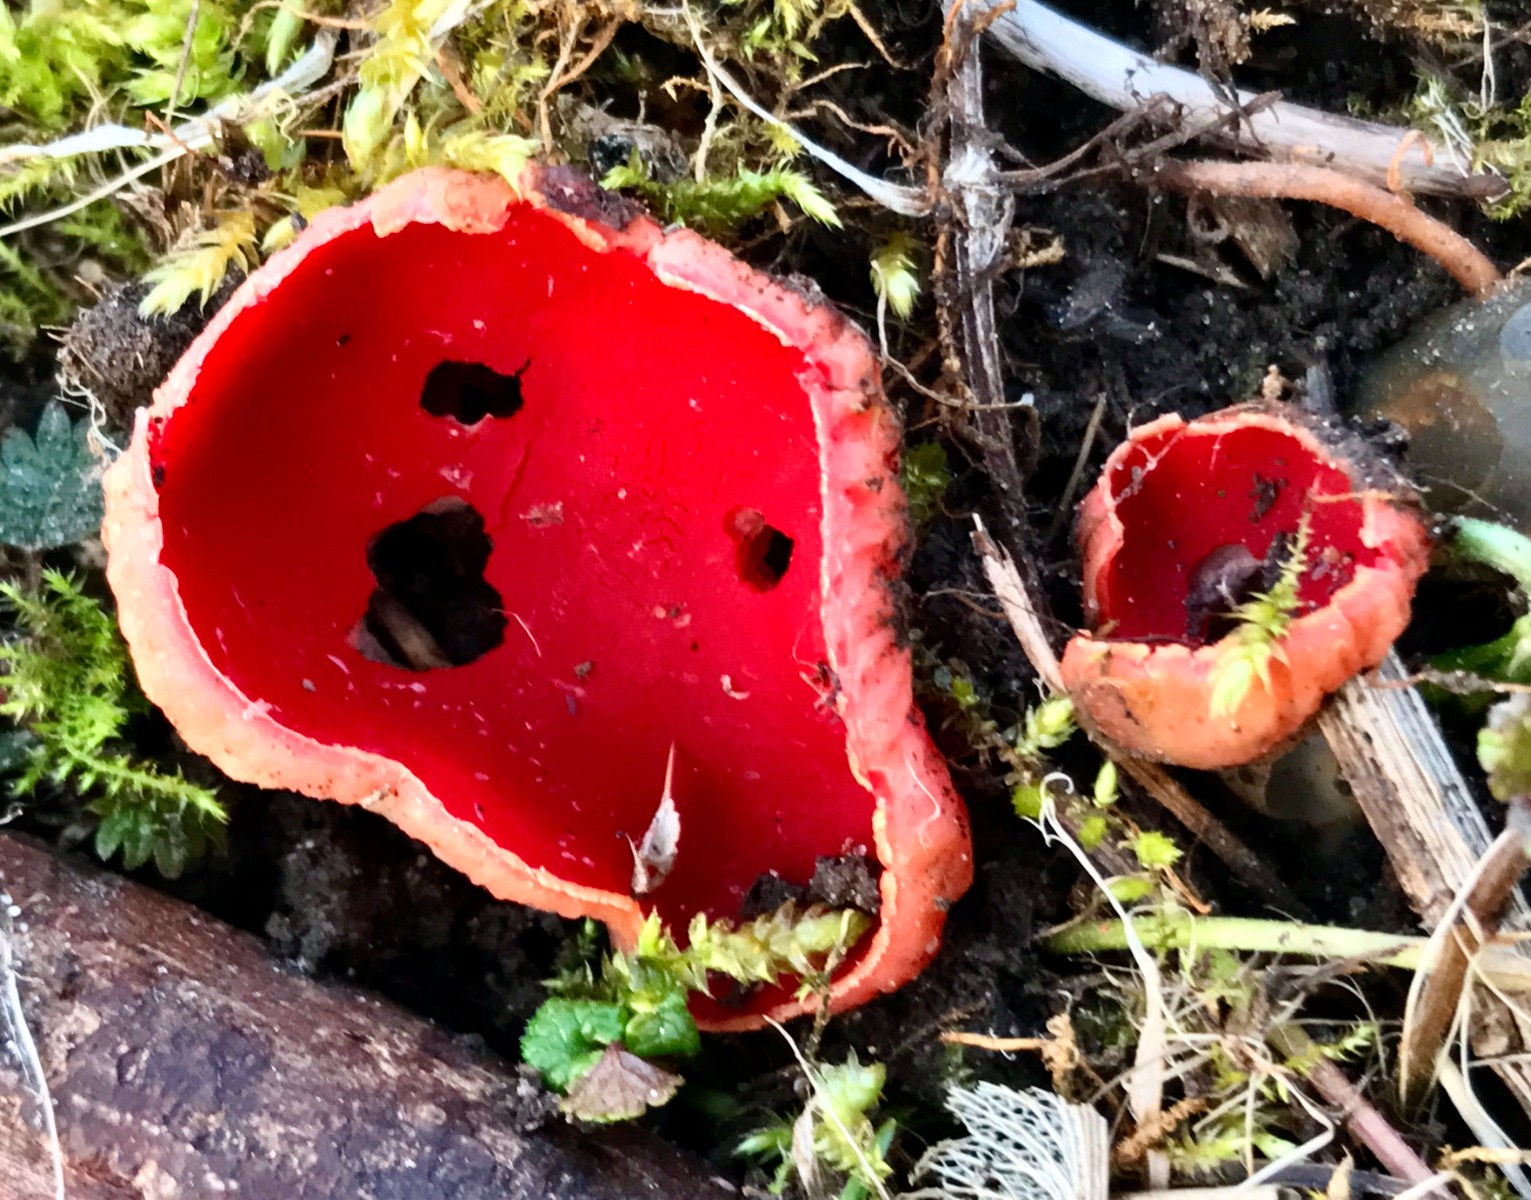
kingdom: Fungi
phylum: Ascomycota
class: Pezizomycetes
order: Pezizales
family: Sarcoscyphaceae
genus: Sarcoscypha
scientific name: Sarcoscypha austriaca
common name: krølhåret pragtbæger
